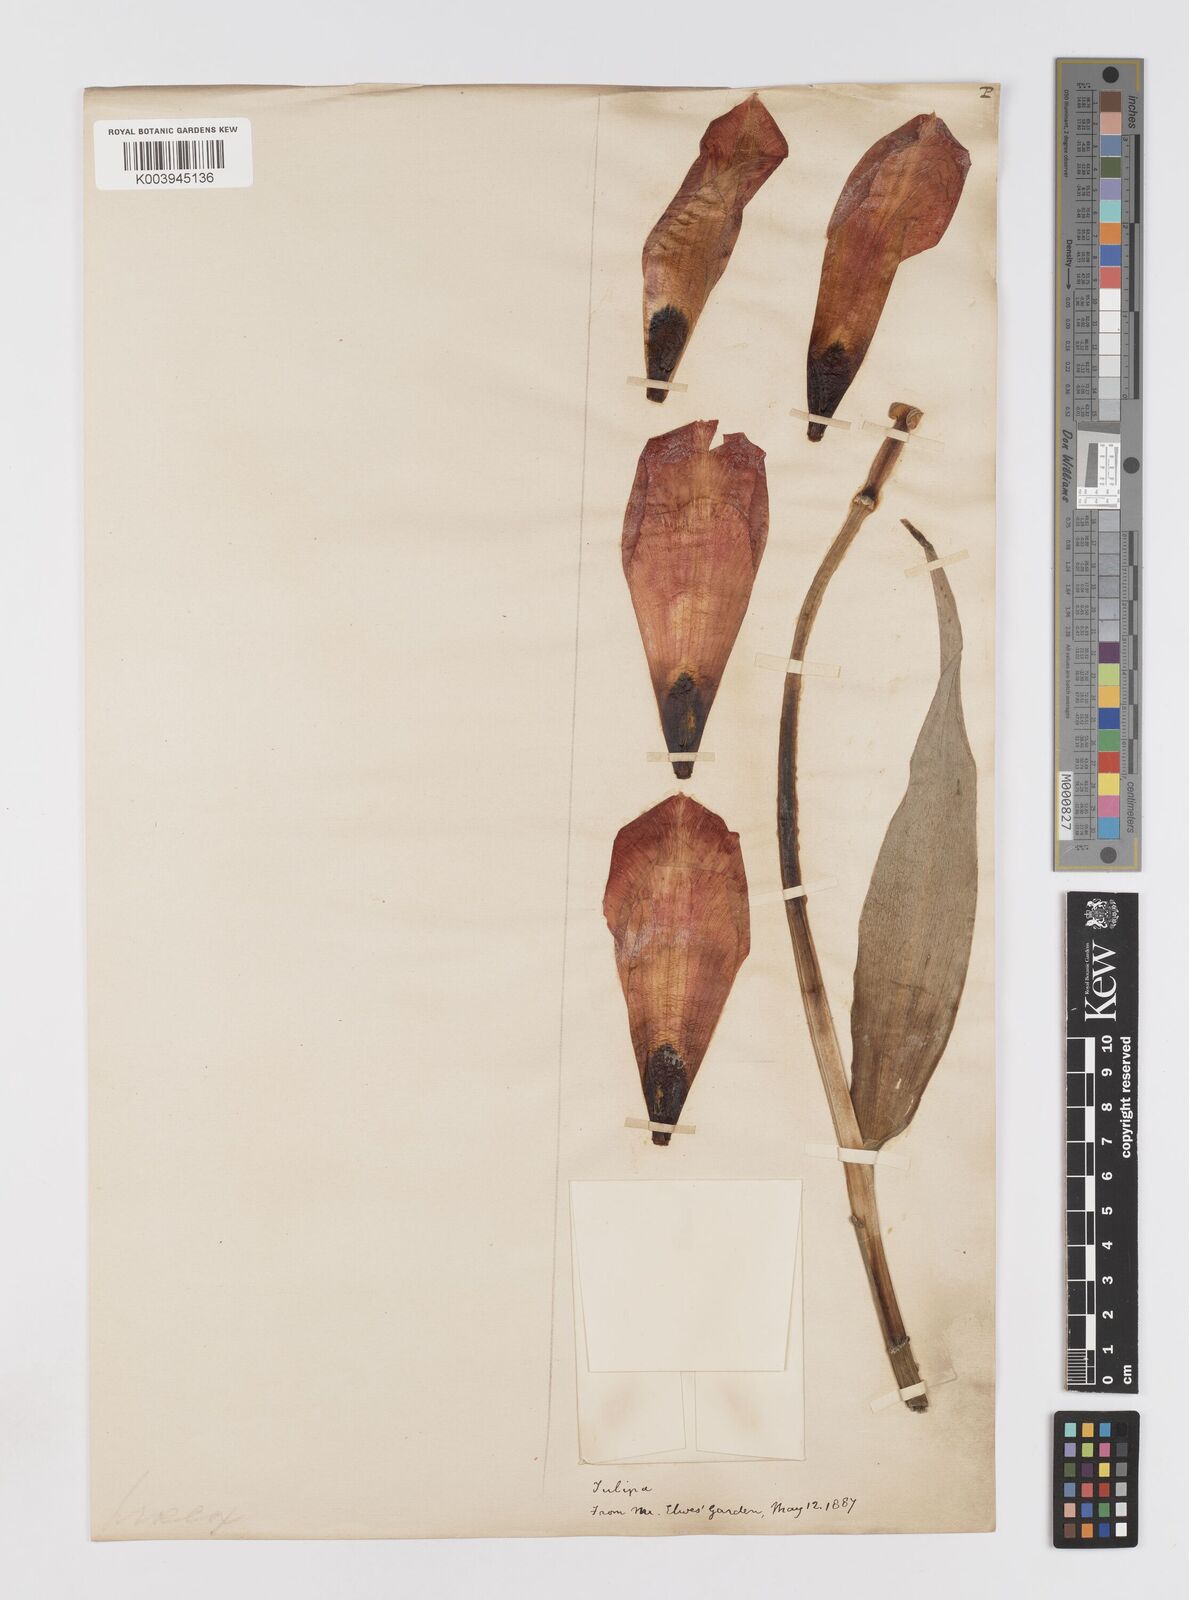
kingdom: Plantae
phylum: Tracheophyta
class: Liliopsida
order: Liliales
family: Liliaceae
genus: Tulipa
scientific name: Tulipa
